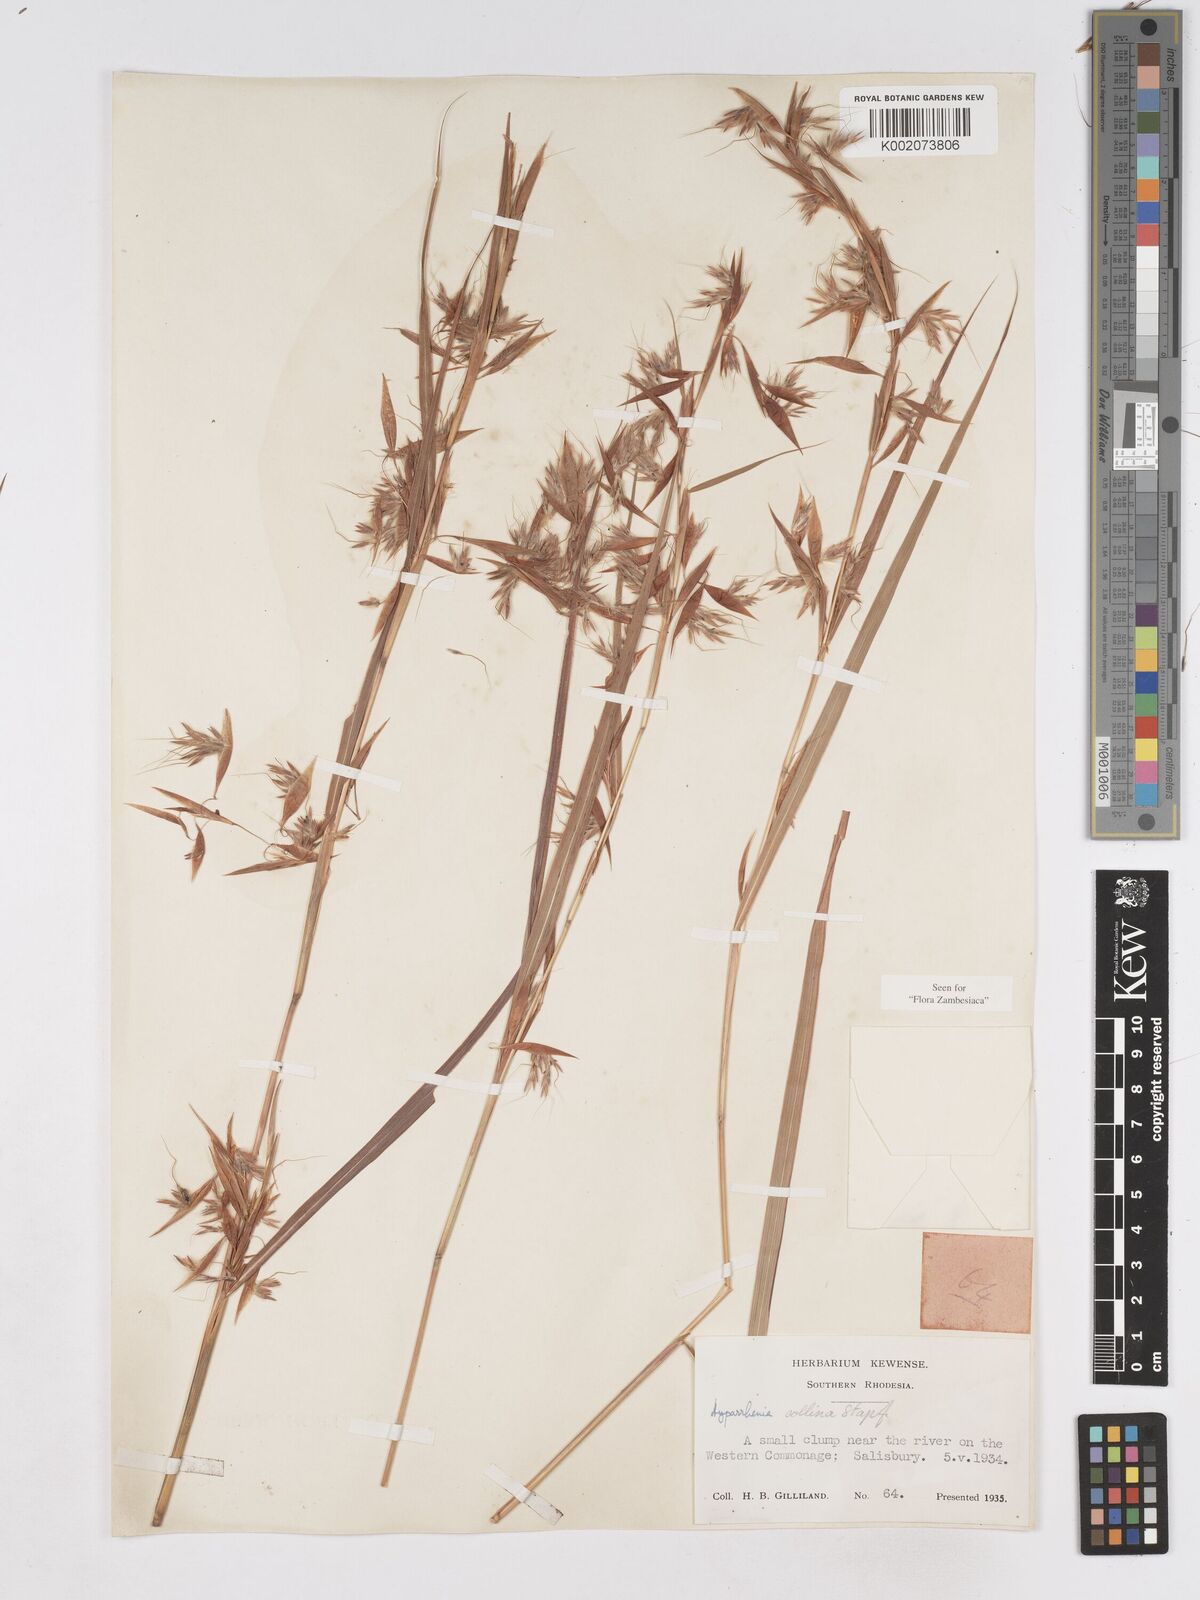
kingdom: Plantae
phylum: Tracheophyta
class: Liliopsida
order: Poales
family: Poaceae
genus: Hyparrhenia
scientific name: Hyparrhenia collina
